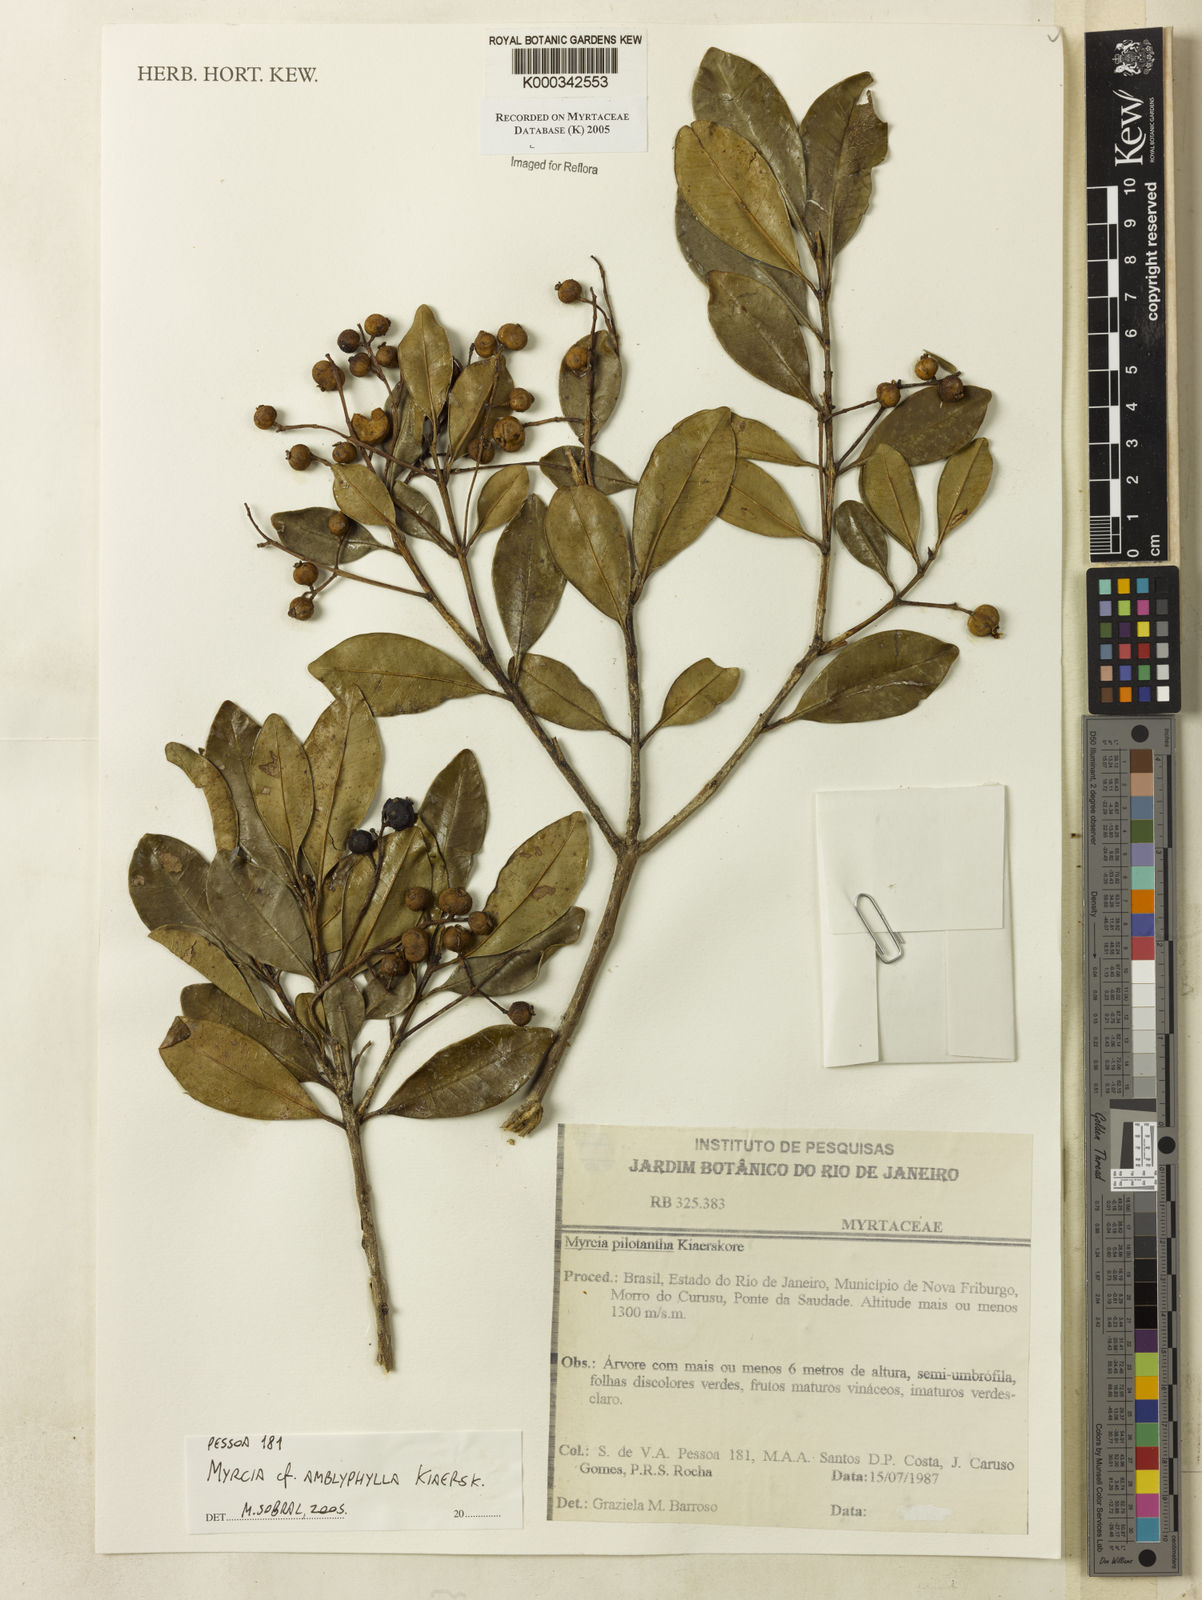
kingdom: Plantae
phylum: Tracheophyta
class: Magnoliopsida
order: Myrtales
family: Myrtaceae
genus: Myrcia
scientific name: Myrcia
